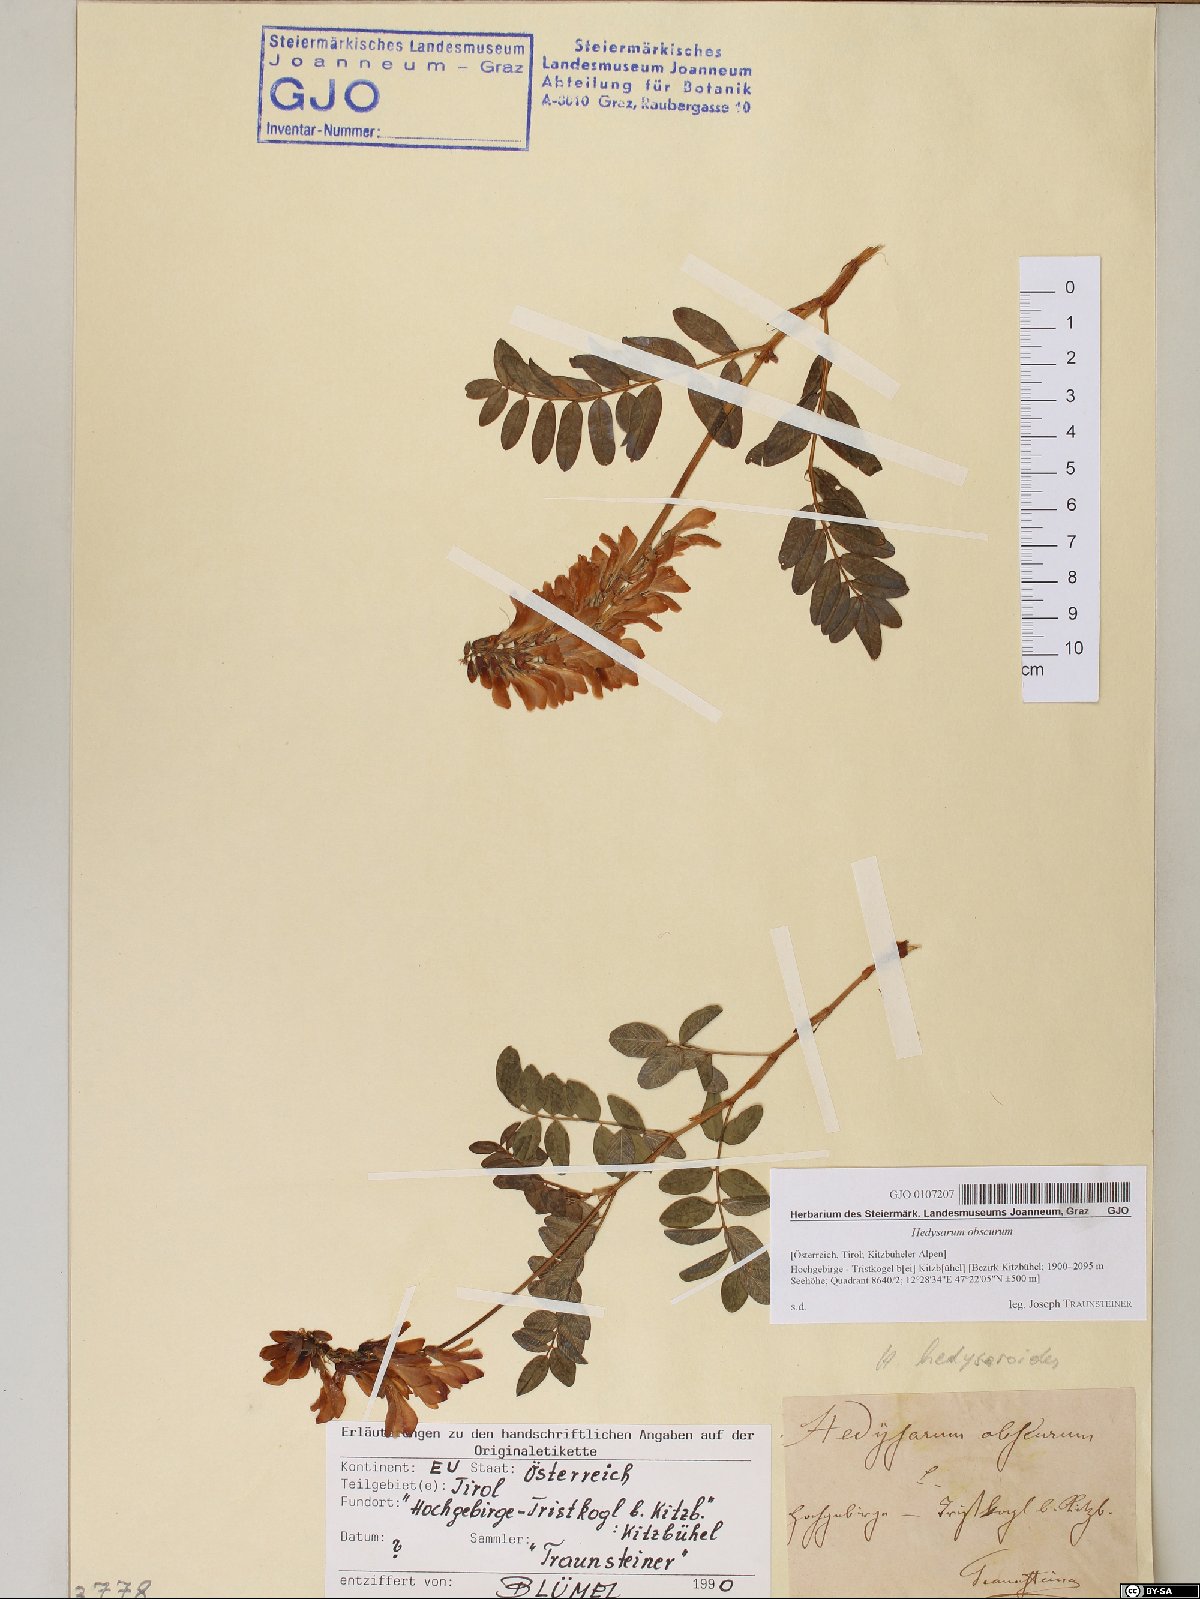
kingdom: Plantae
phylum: Tracheophyta
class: Magnoliopsida
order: Fabales
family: Fabaceae
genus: Hedysarum
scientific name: Hedysarum hedysaroides
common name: Alpine french-honeysuckle
